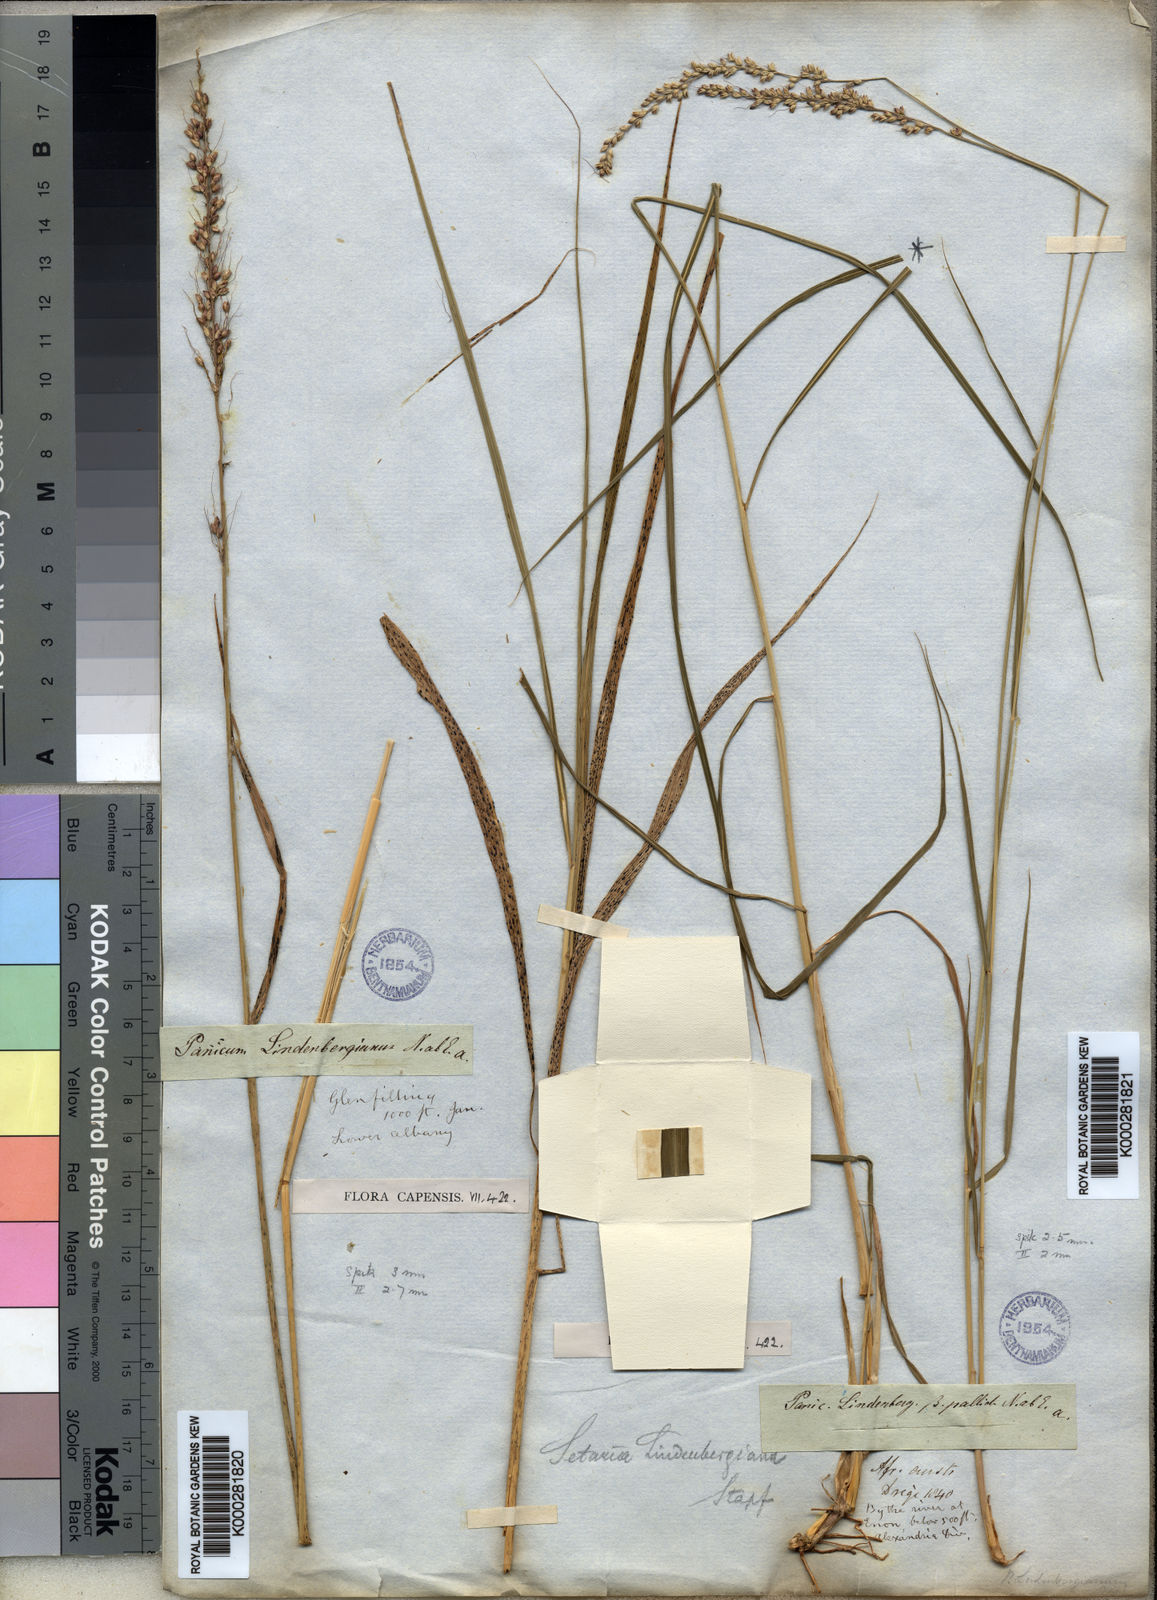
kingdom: Plantae
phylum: Tracheophyta
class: Liliopsida
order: Poales
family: Poaceae
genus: Setaria
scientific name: Setaria lindenbergiana
